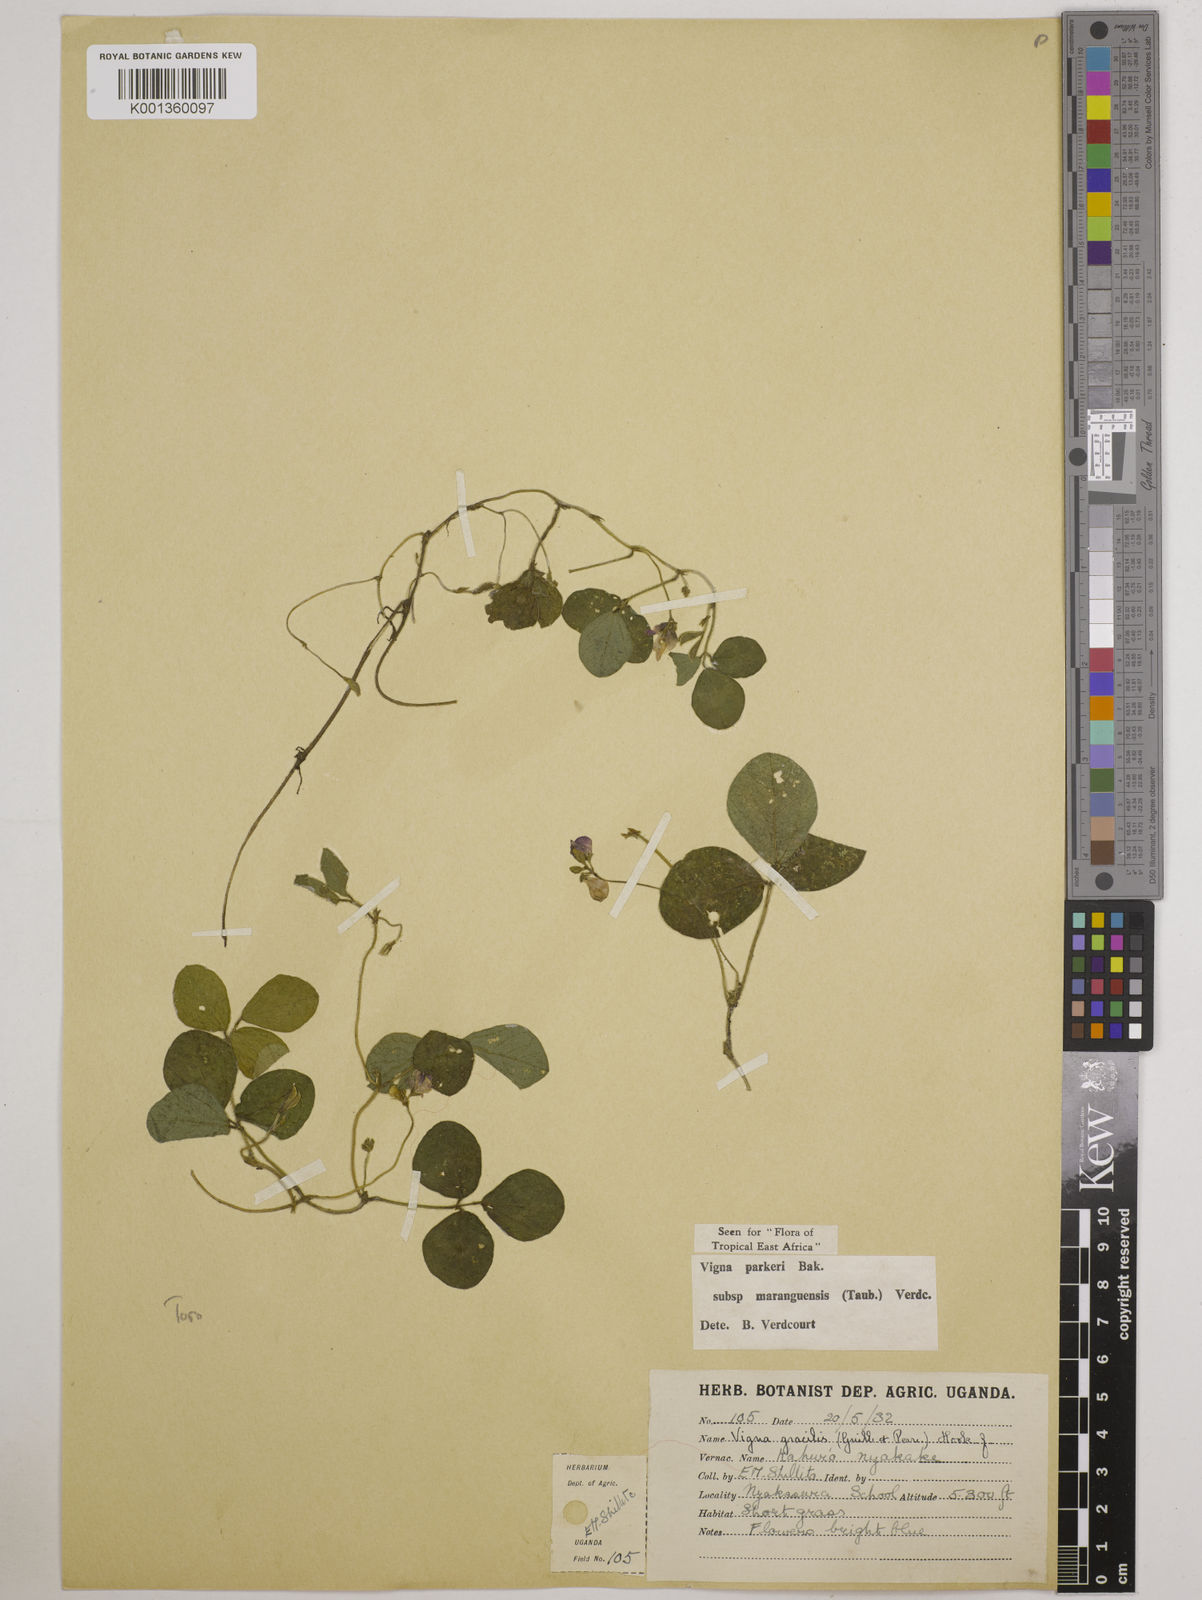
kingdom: Plantae
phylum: Tracheophyta
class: Magnoliopsida
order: Fabales
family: Fabaceae
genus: Vigna
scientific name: Vigna parkeri
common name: Creeping vigna
